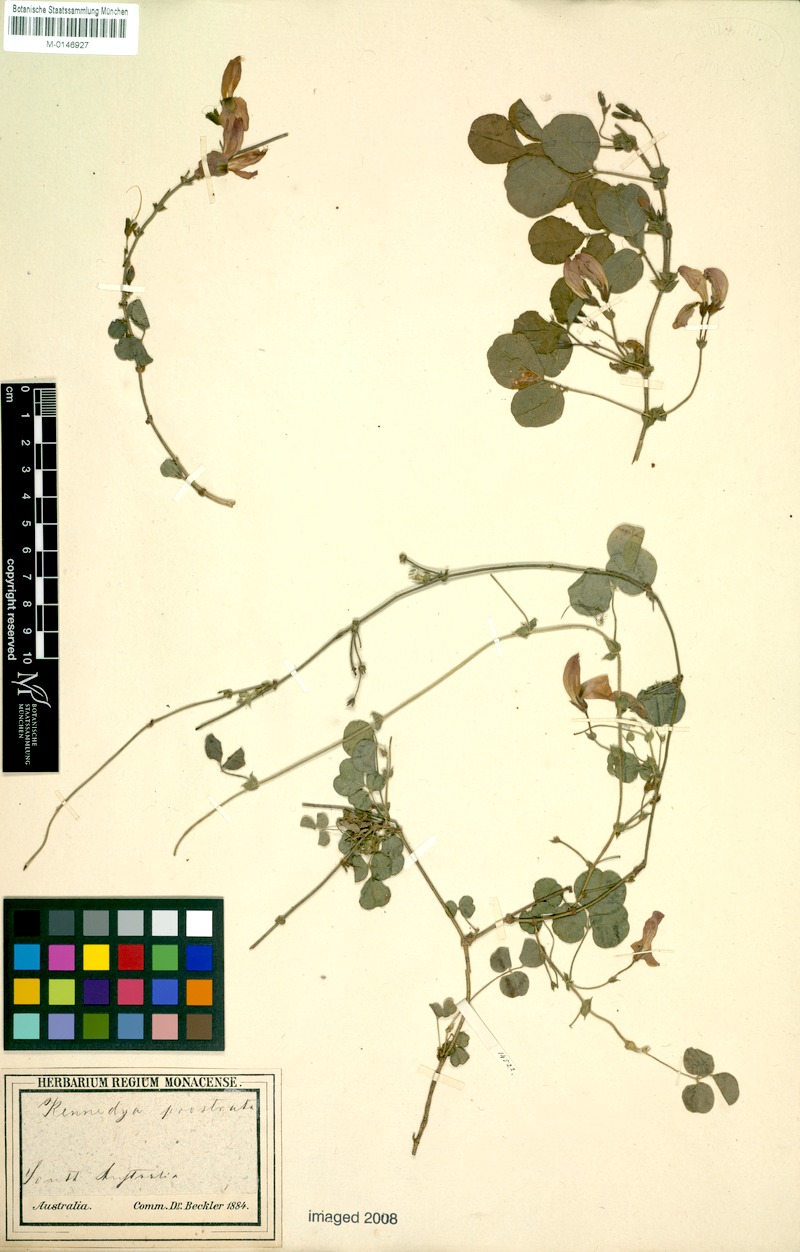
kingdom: Plantae
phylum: Tracheophyta
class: Magnoliopsida
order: Fabales
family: Fabaceae
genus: Kennedia
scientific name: Kennedia prostrata
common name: Running-postman
